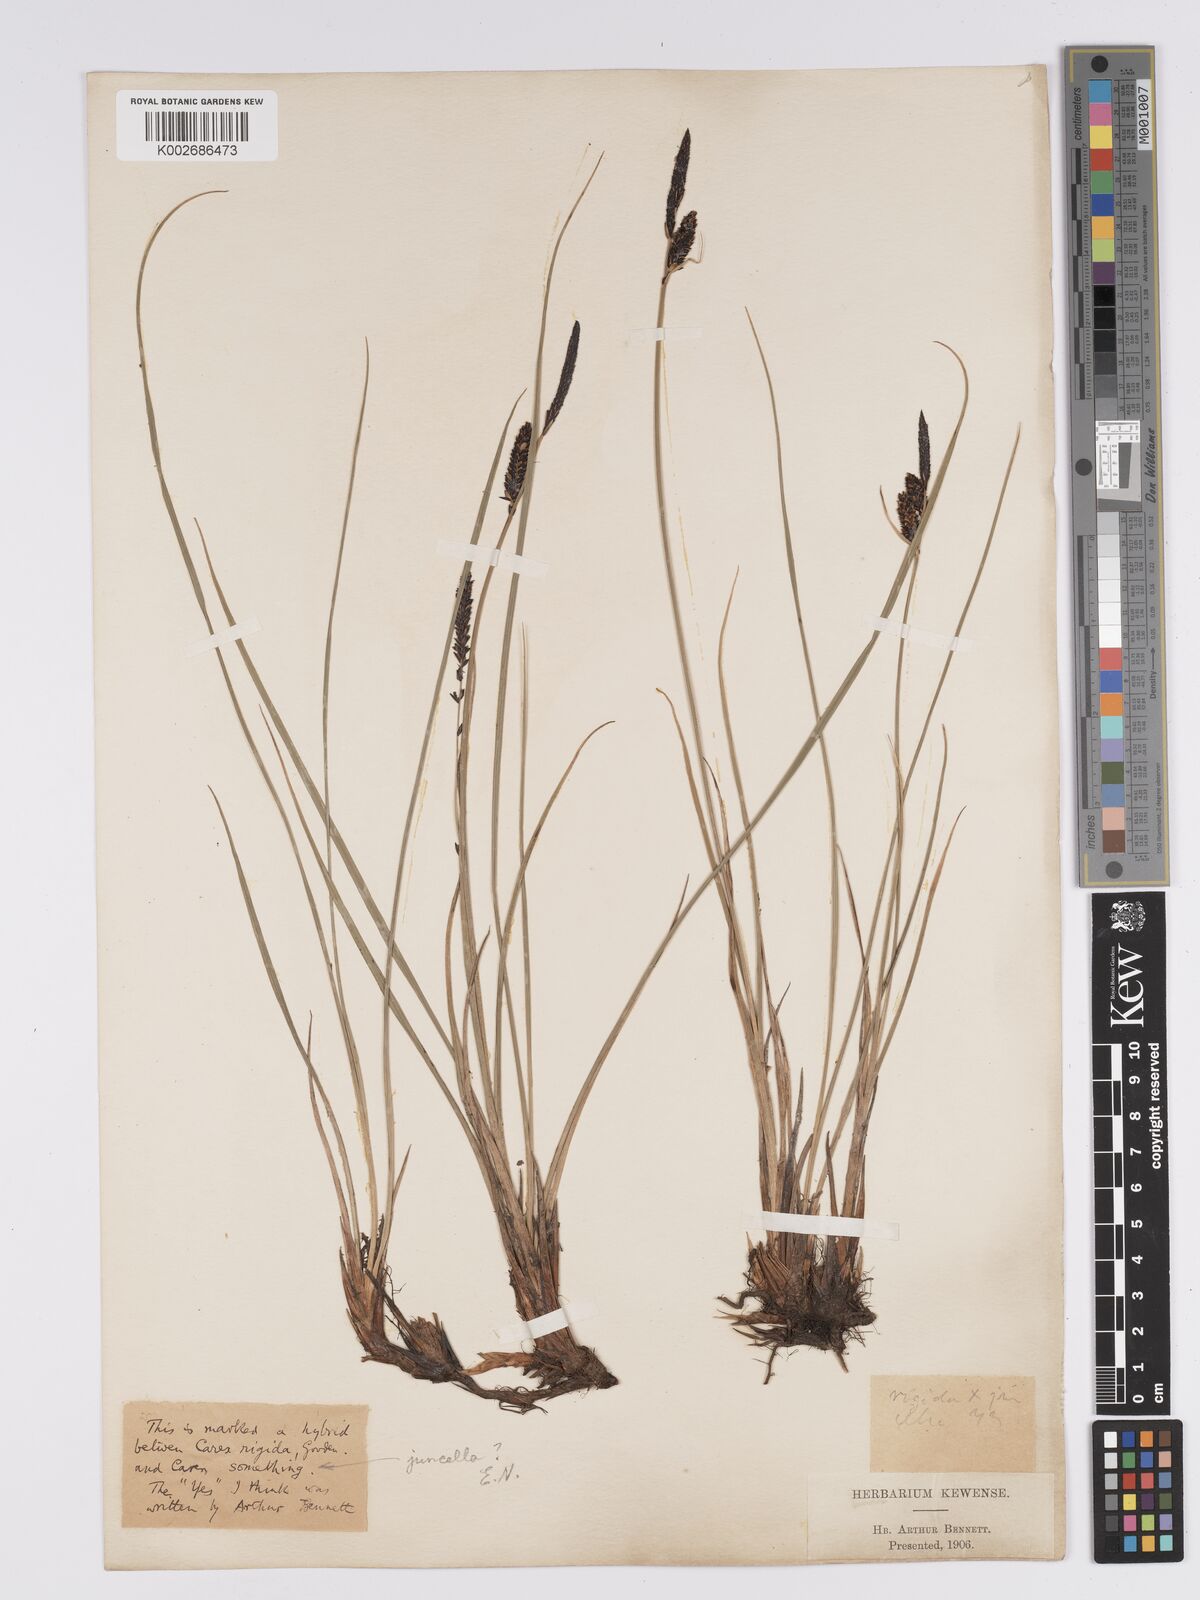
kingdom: Plantae
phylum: Tracheophyta
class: Liliopsida
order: Poales
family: Cyperaceae
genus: Carex
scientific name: Carex bigelowii
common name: Stiff sedge
